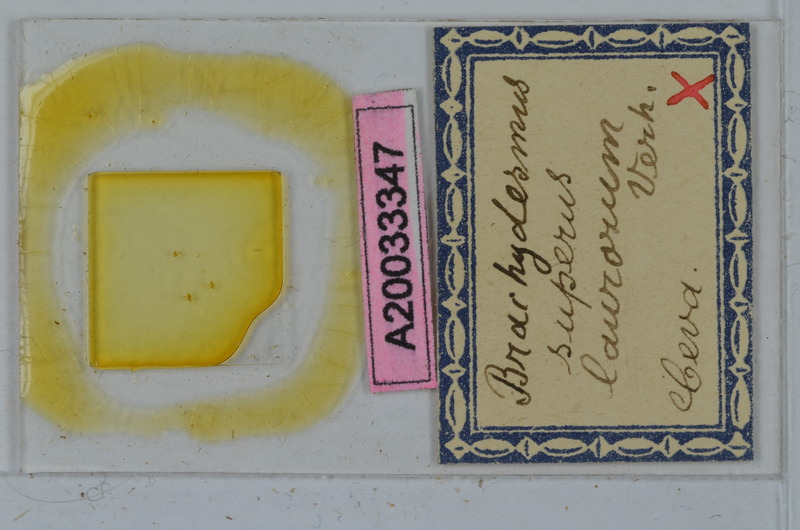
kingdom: Animalia
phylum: Arthropoda
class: Diplopoda
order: Polydesmida
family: Polydesmidae
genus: Brachydesmus
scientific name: Brachydesmus superus
